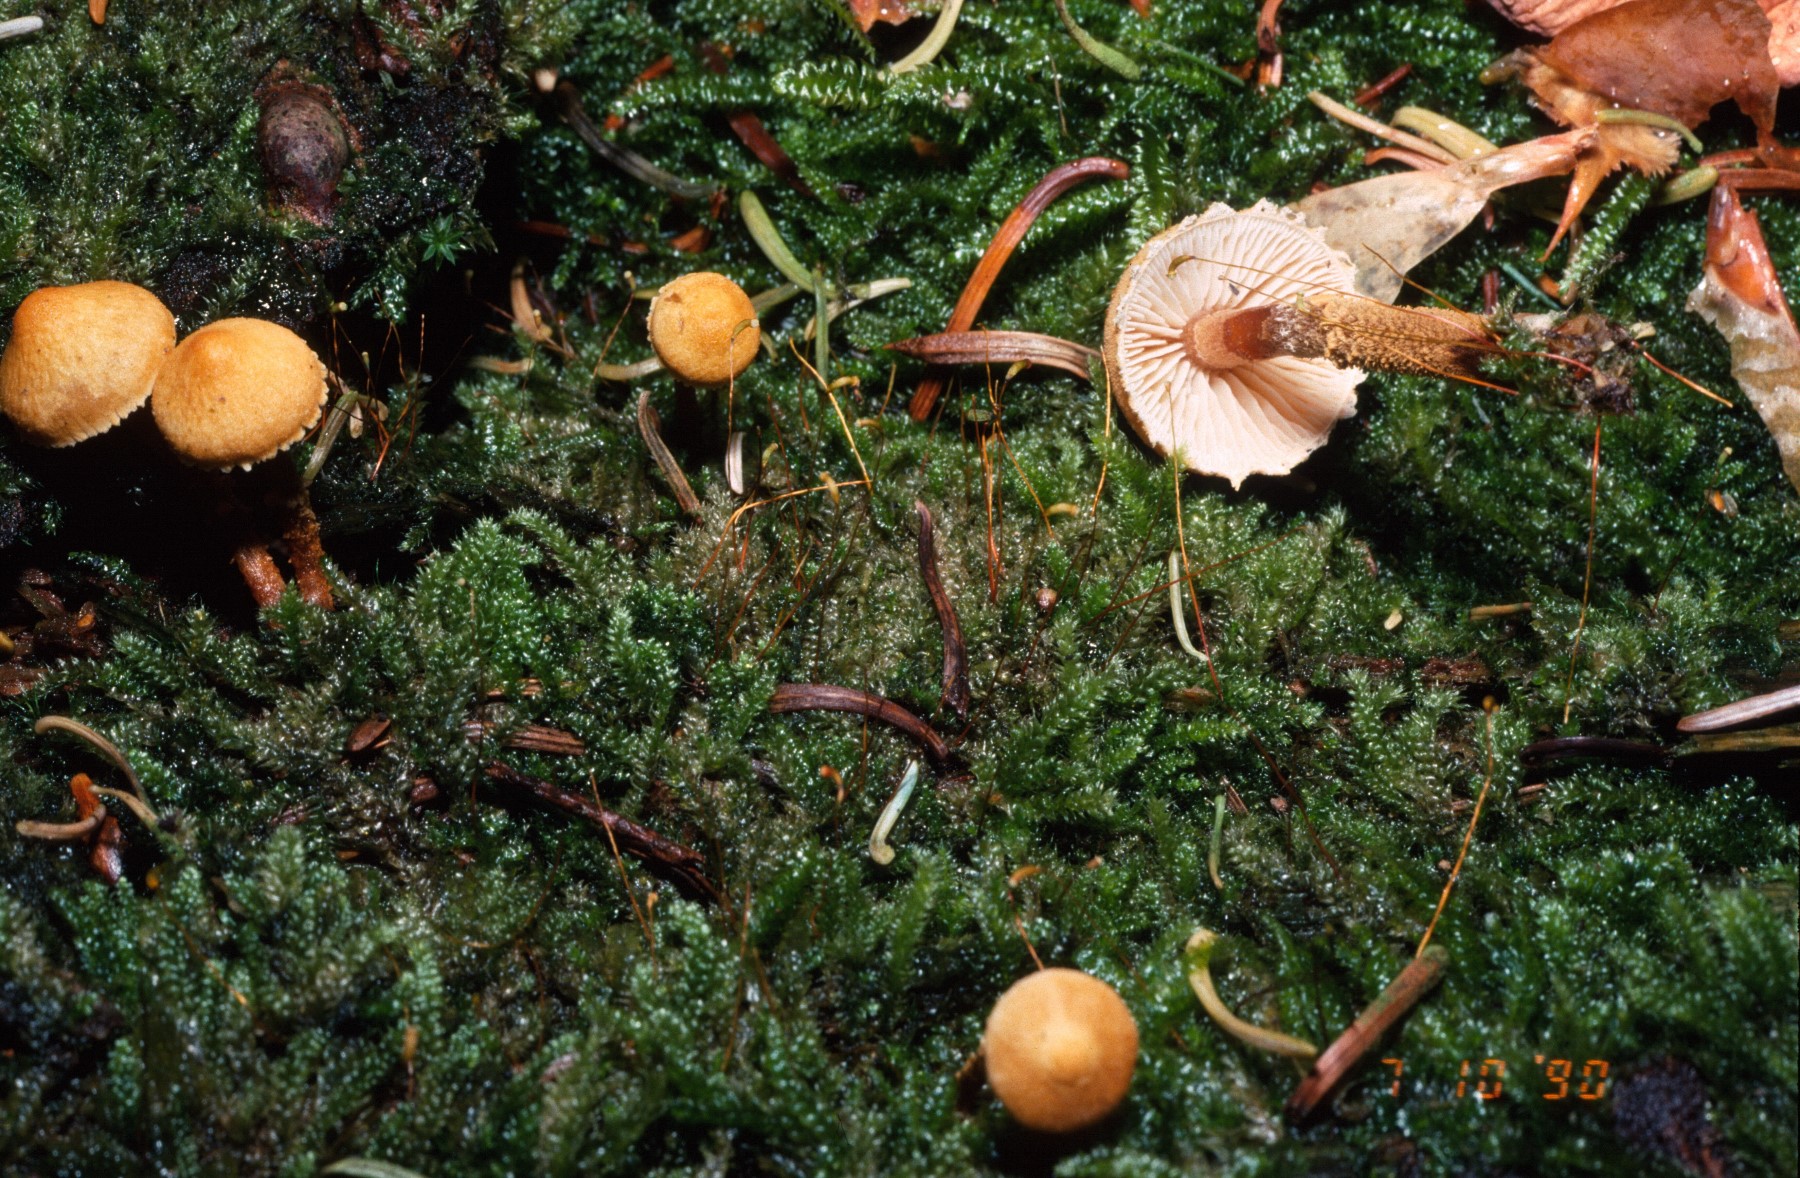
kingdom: Fungi
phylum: Basidiomycota
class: Agaricomycetes
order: Agaricales
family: Tricholomataceae
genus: Cystoderma
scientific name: Cystoderma amianthinum
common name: okkergul grynhat
